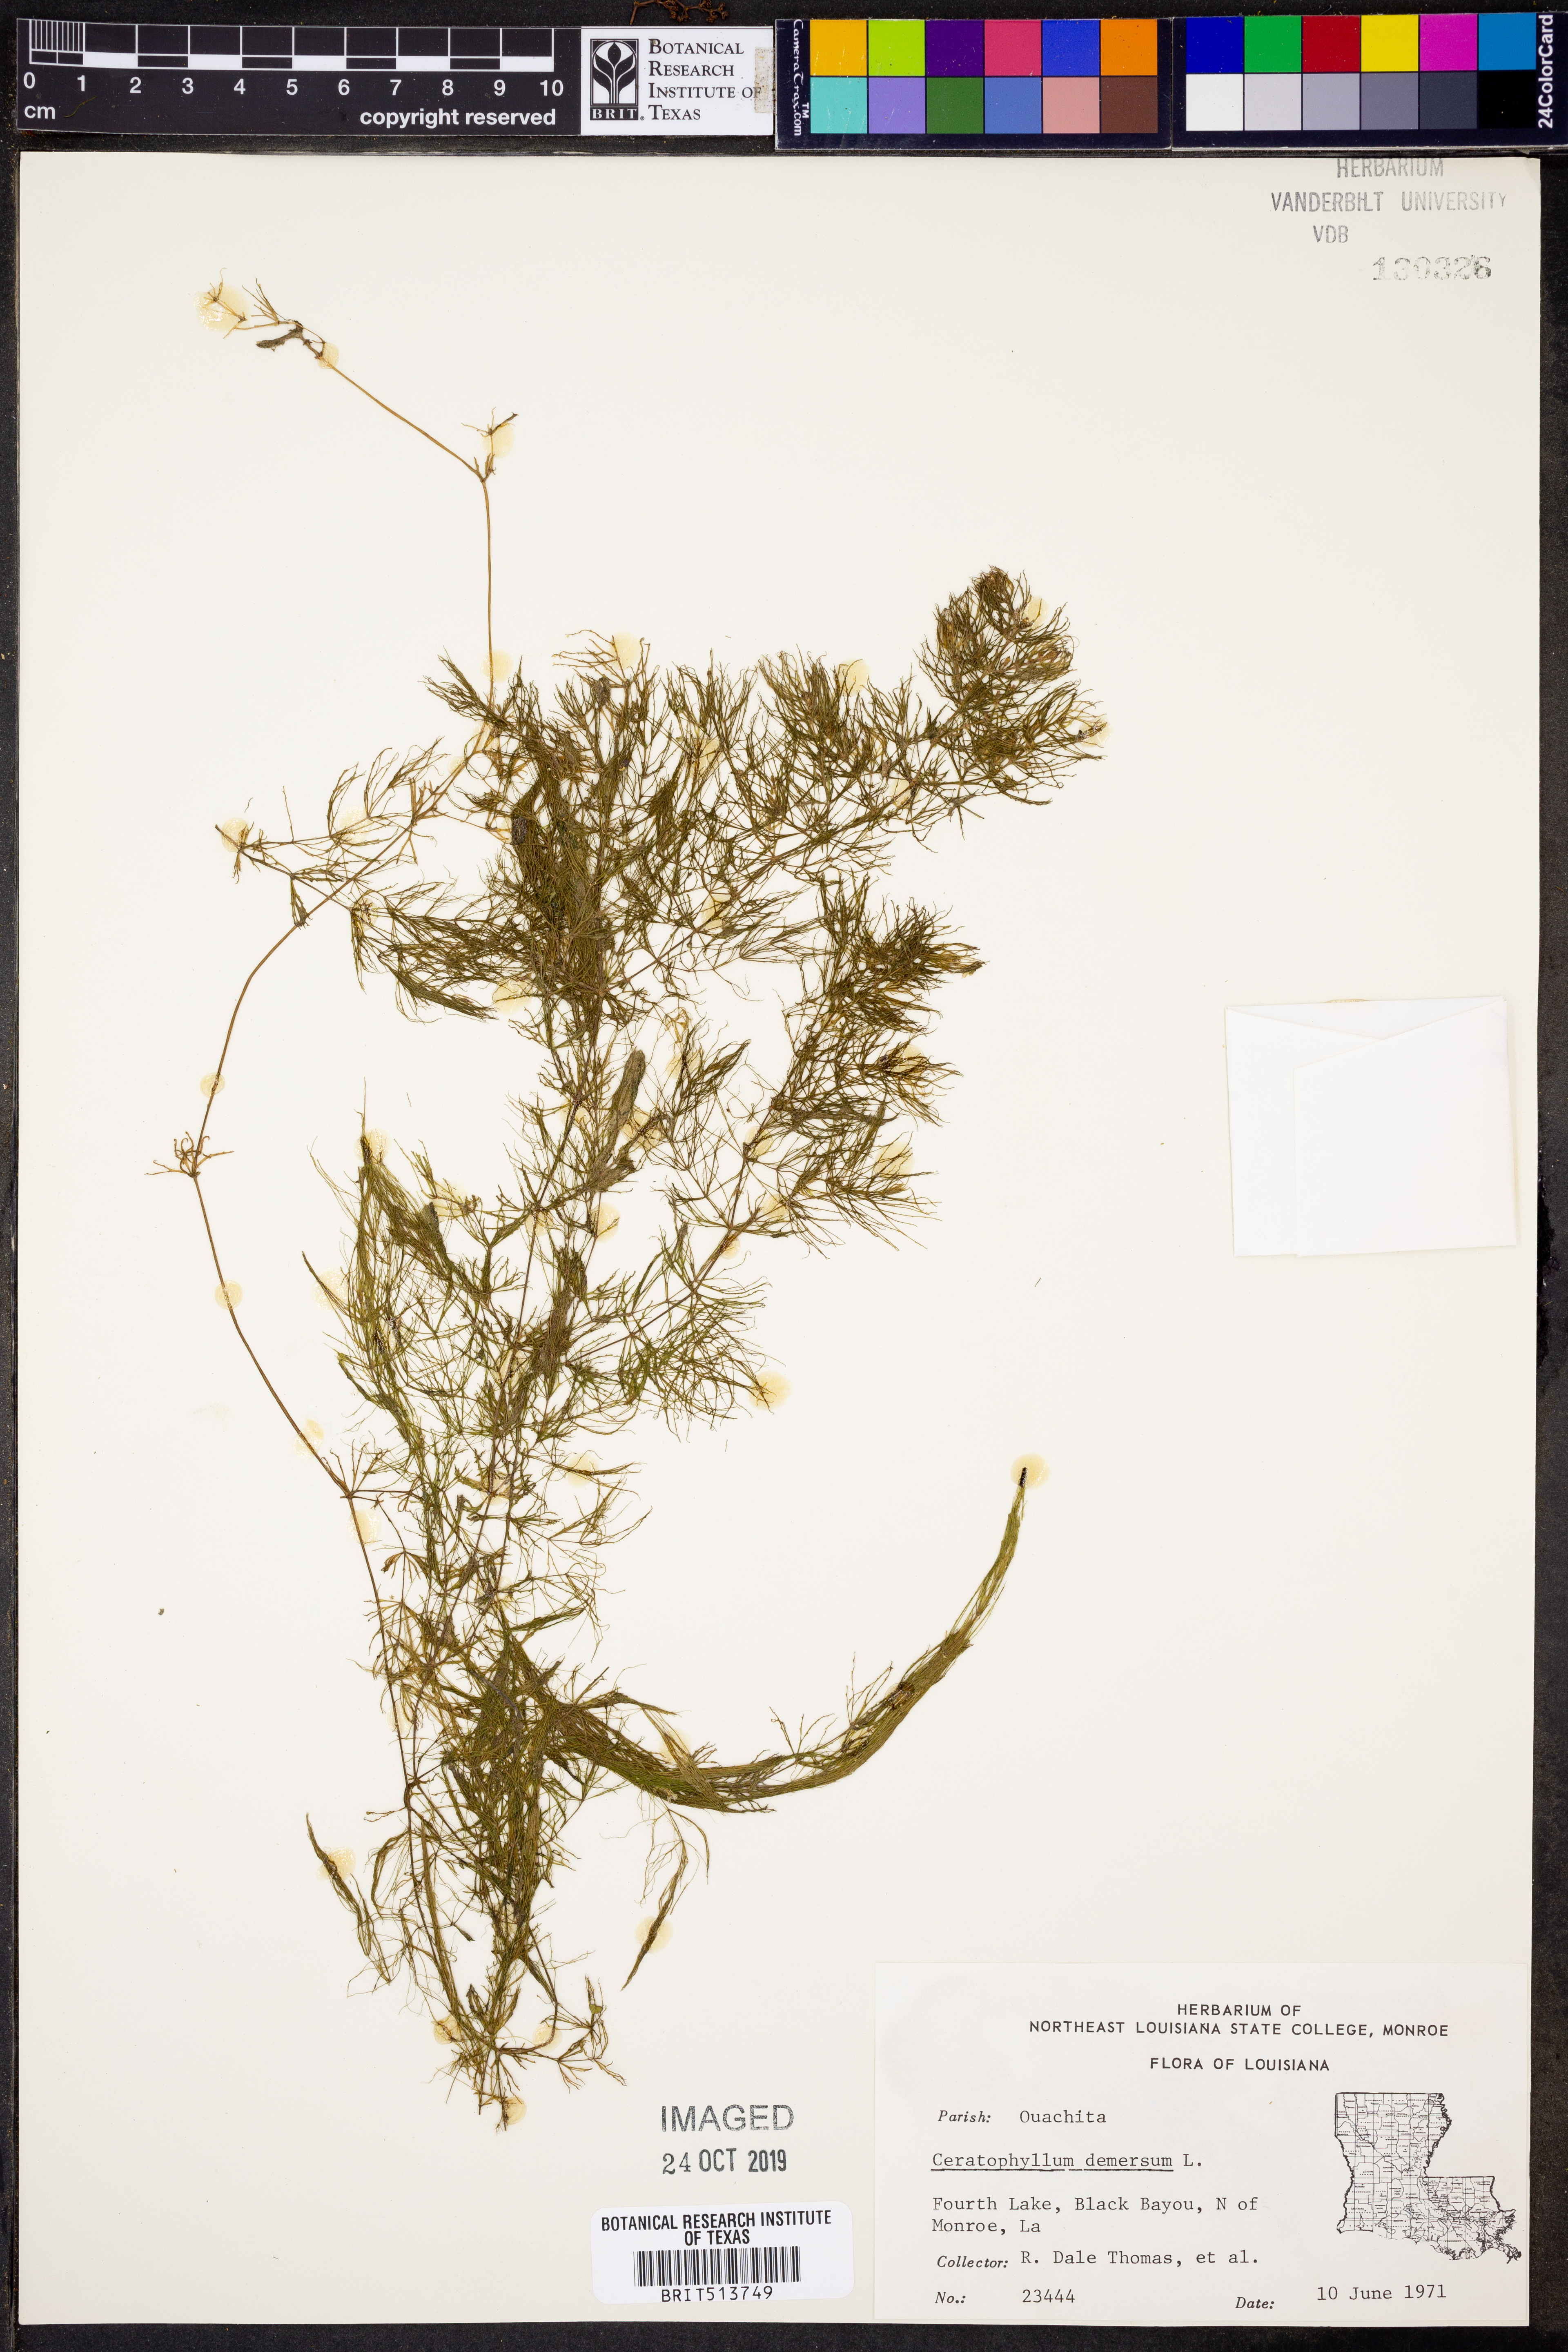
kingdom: Plantae
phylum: Tracheophyta
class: Magnoliopsida
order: Ceratophyllales
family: Ceratophyllaceae
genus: Ceratophyllum
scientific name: Ceratophyllum demersum
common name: Rigid hornwort
